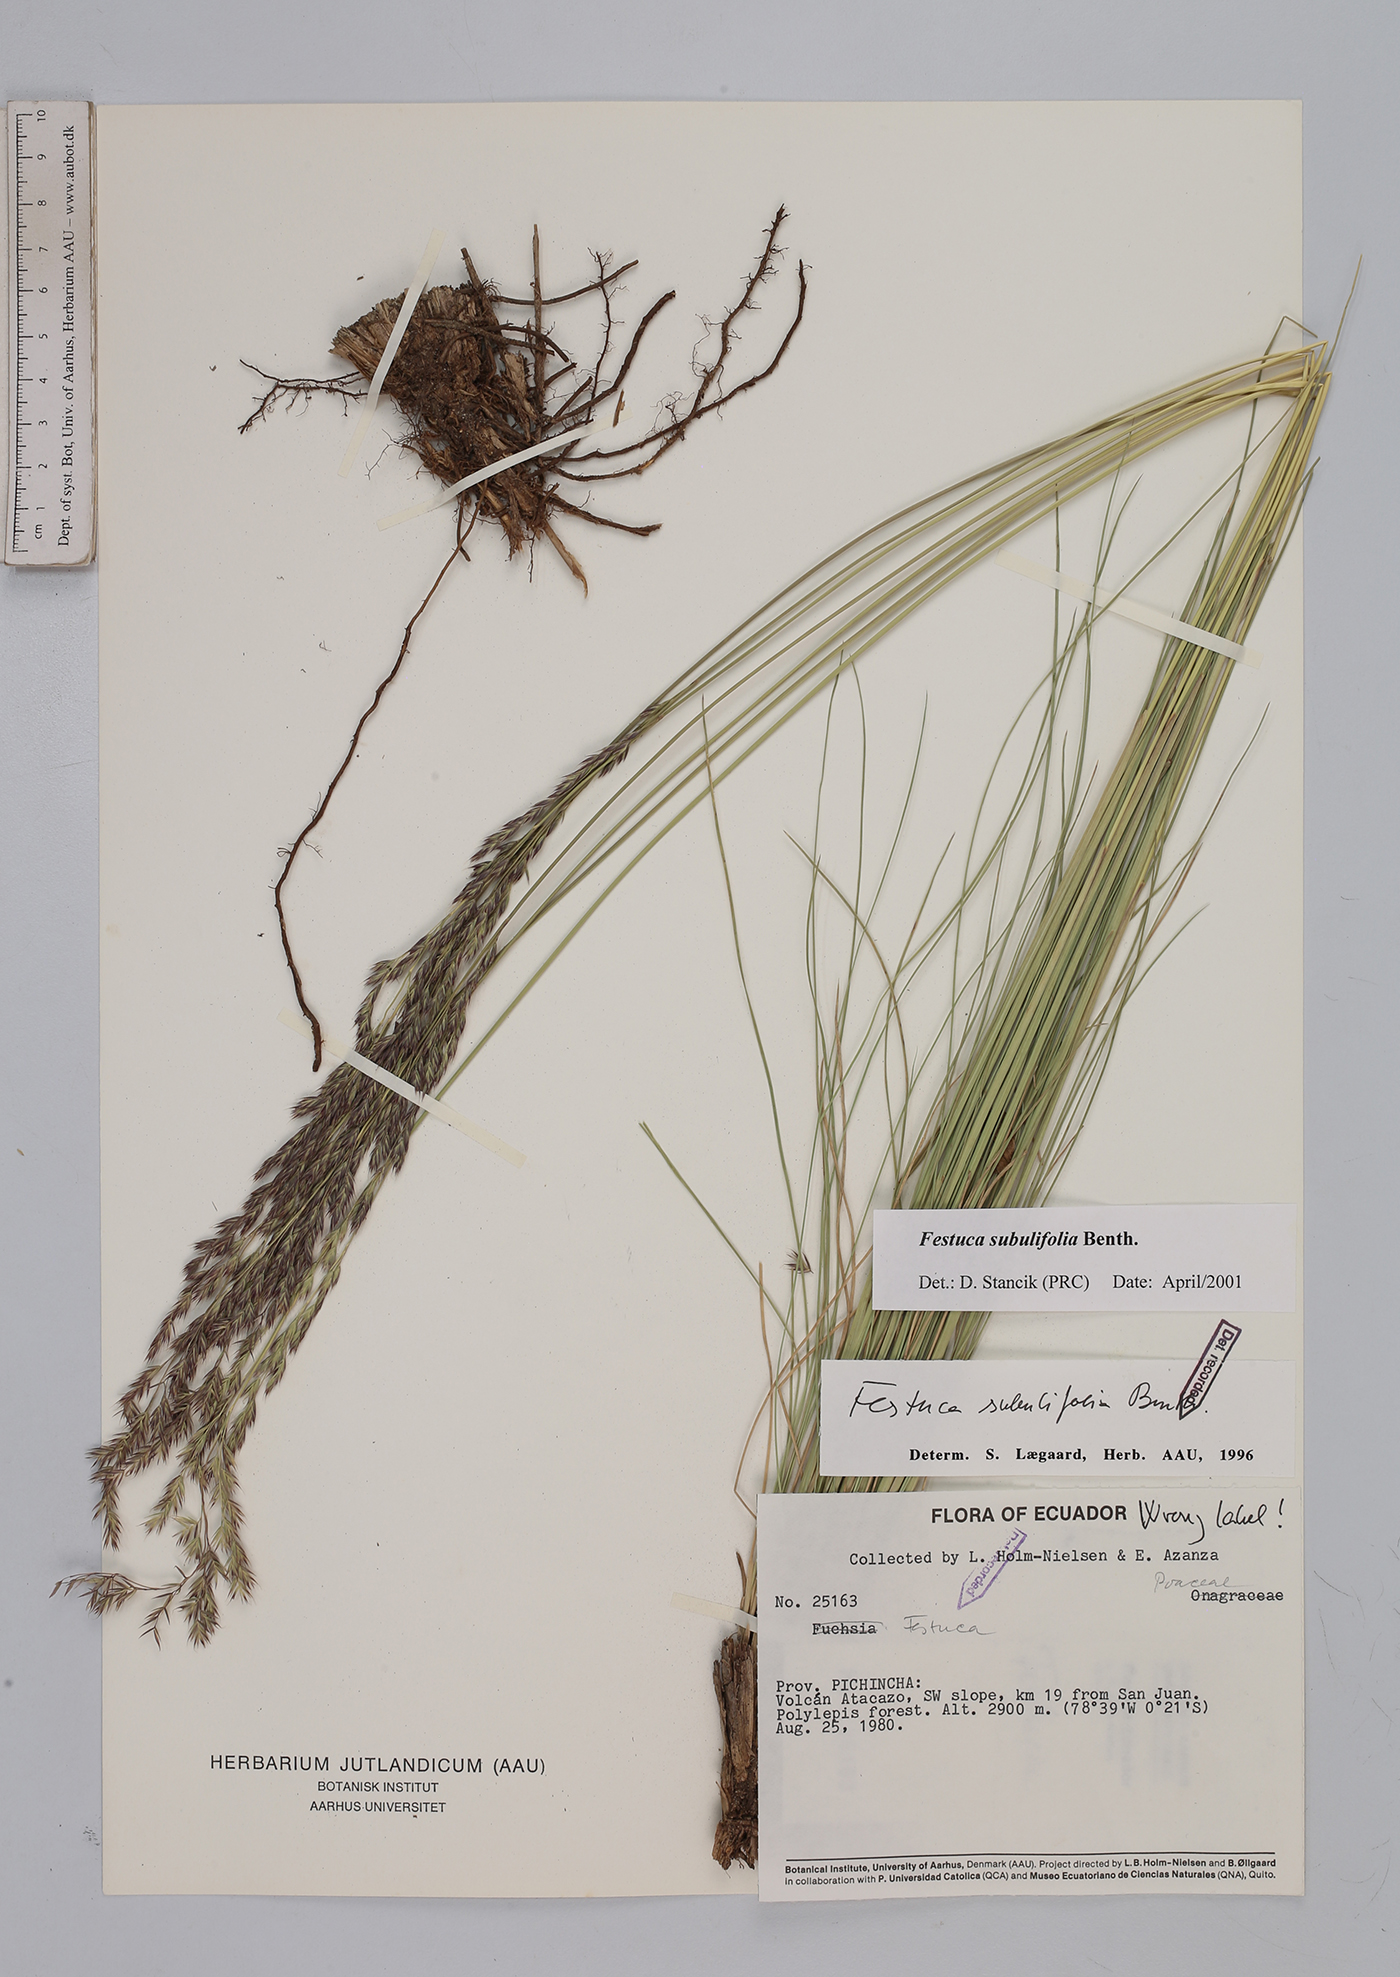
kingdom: Plantae
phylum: Tracheophyta
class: Liliopsida
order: Poales
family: Poaceae
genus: Festuca
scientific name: Festuca subulifolia
